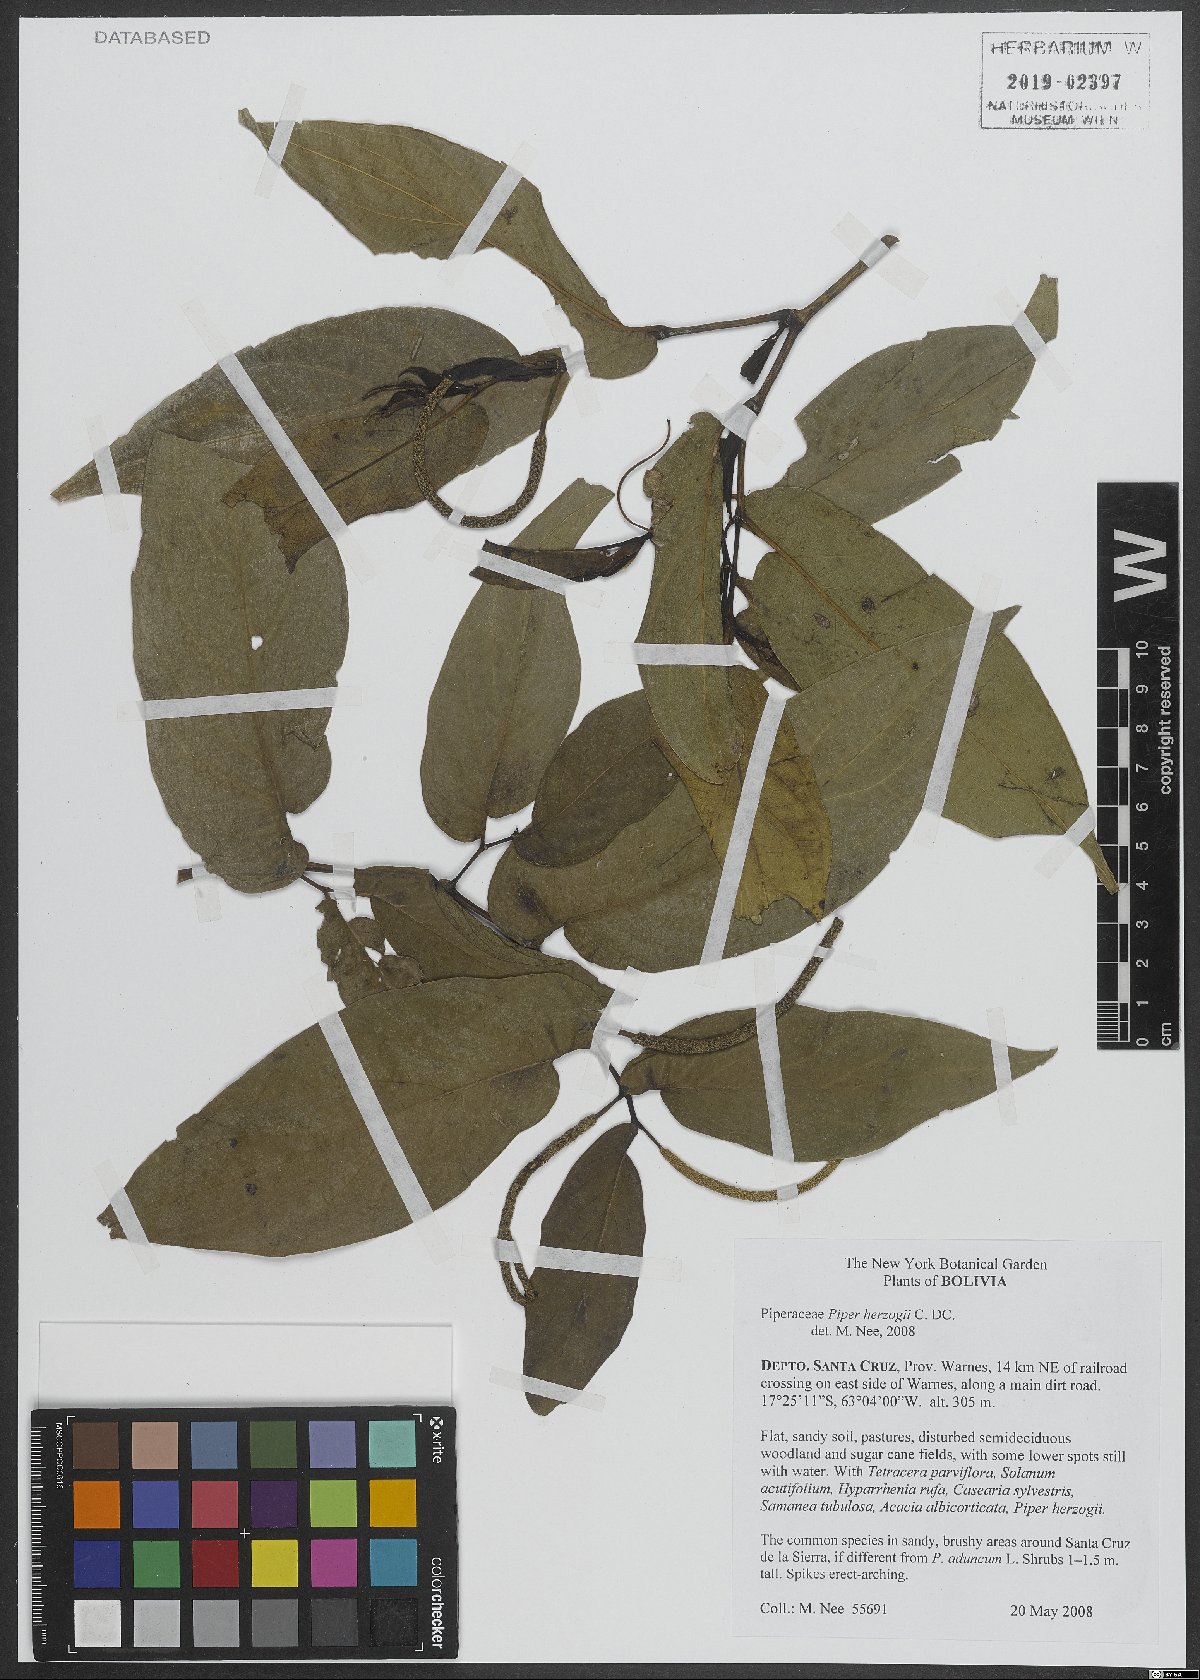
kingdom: Plantae
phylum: Tracheophyta
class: Magnoliopsida
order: Piperales
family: Piperaceae
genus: Piper
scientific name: Piper aduncum
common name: Spiked pepper
